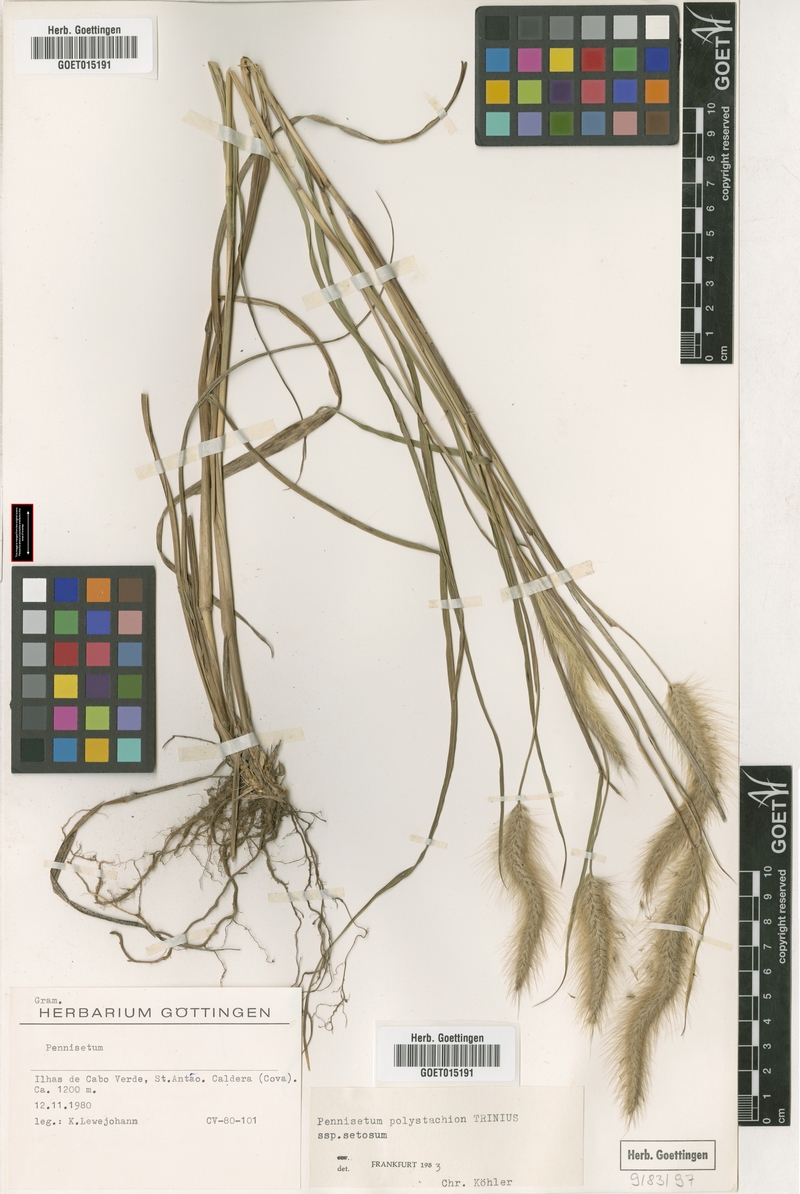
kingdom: Plantae
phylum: Tracheophyta
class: Liliopsida
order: Poales
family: Poaceae
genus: Cenchrus
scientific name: Cenchrus setosus
